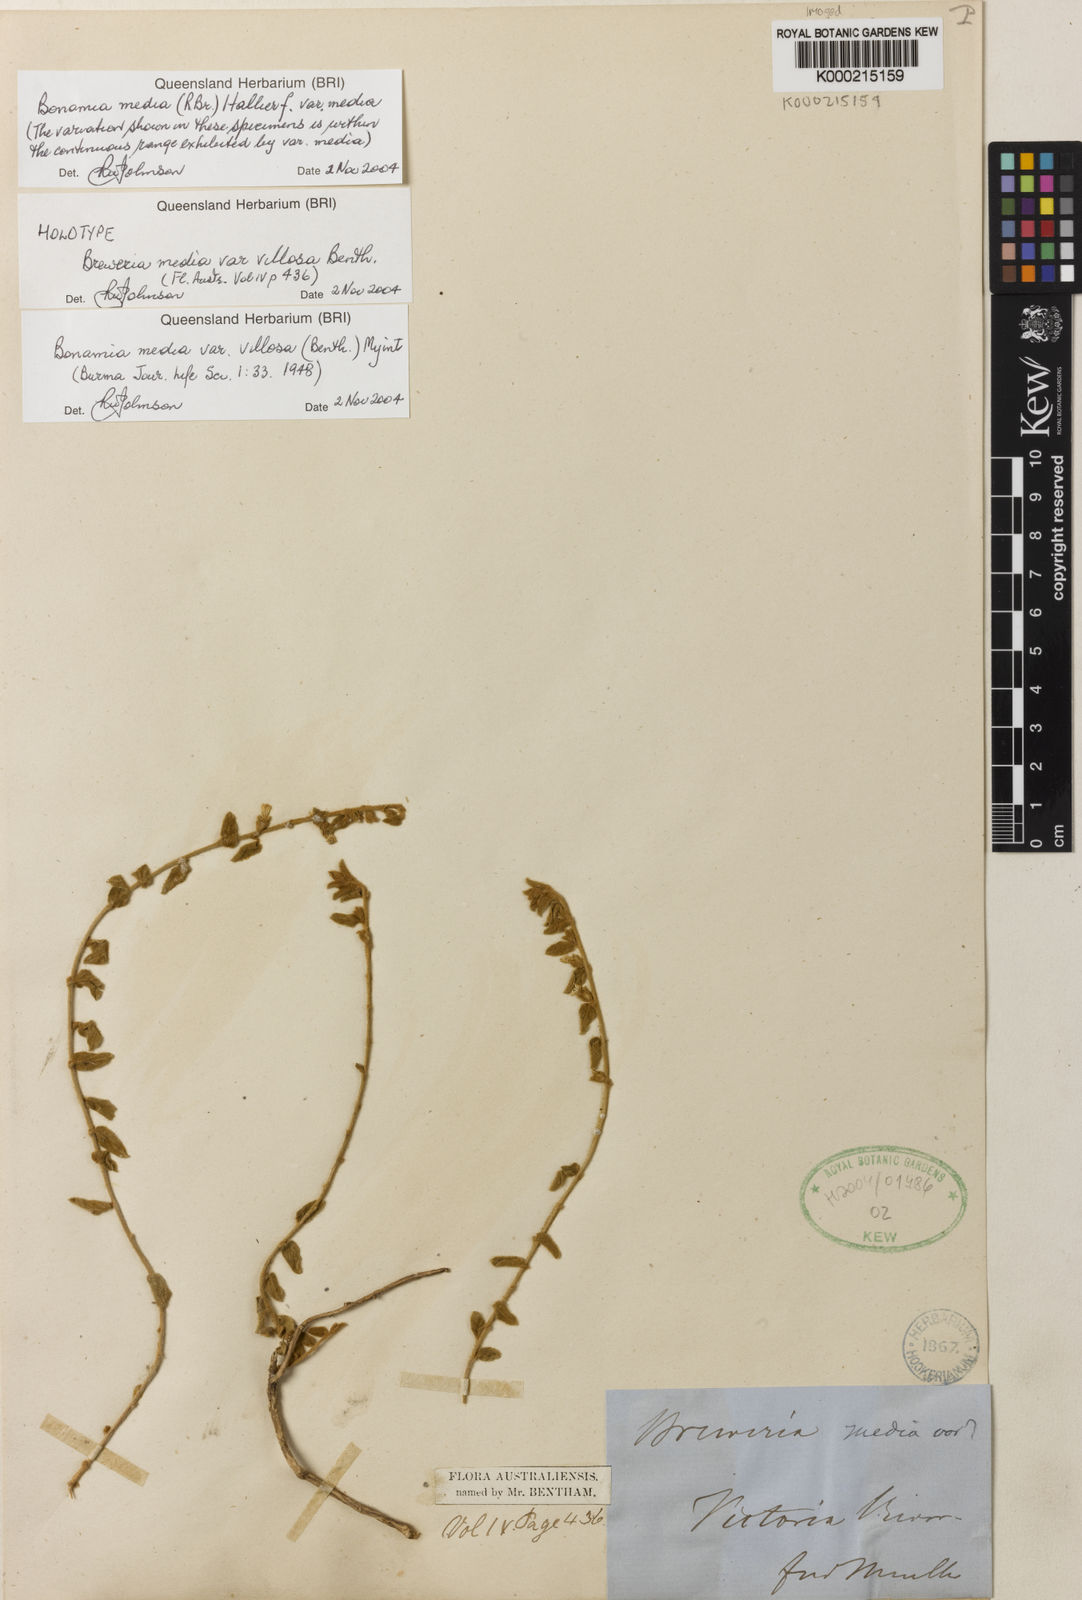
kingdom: Plantae
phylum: Tracheophyta
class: Magnoliopsida
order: Solanales
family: Convolvulaceae
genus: Bonamia
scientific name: Bonamia media
